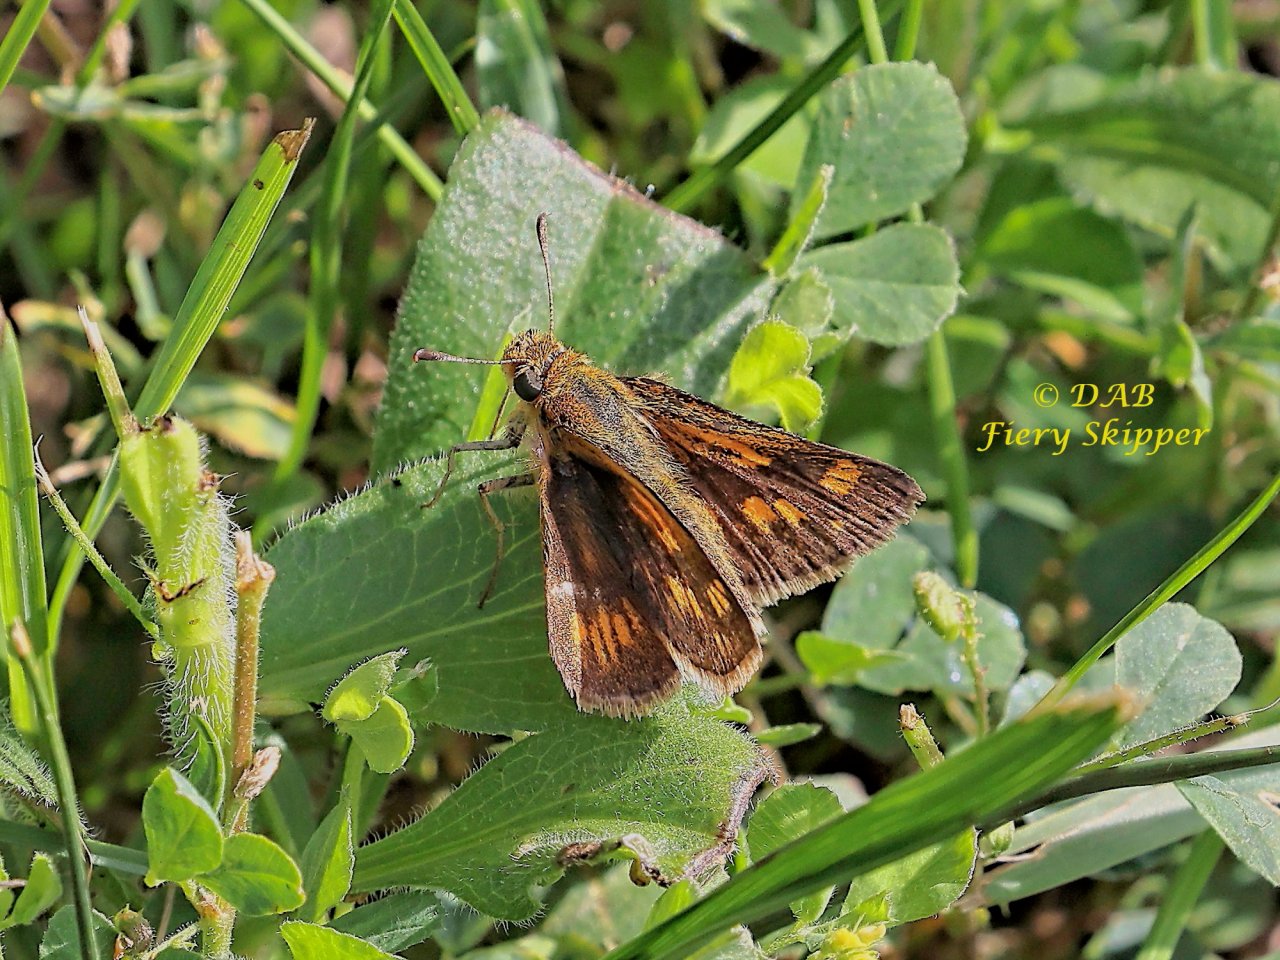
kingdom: Animalia
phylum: Arthropoda
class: Insecta
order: Lepidoptera
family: Hesperiidae
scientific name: Hesperiidae
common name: Skippers
